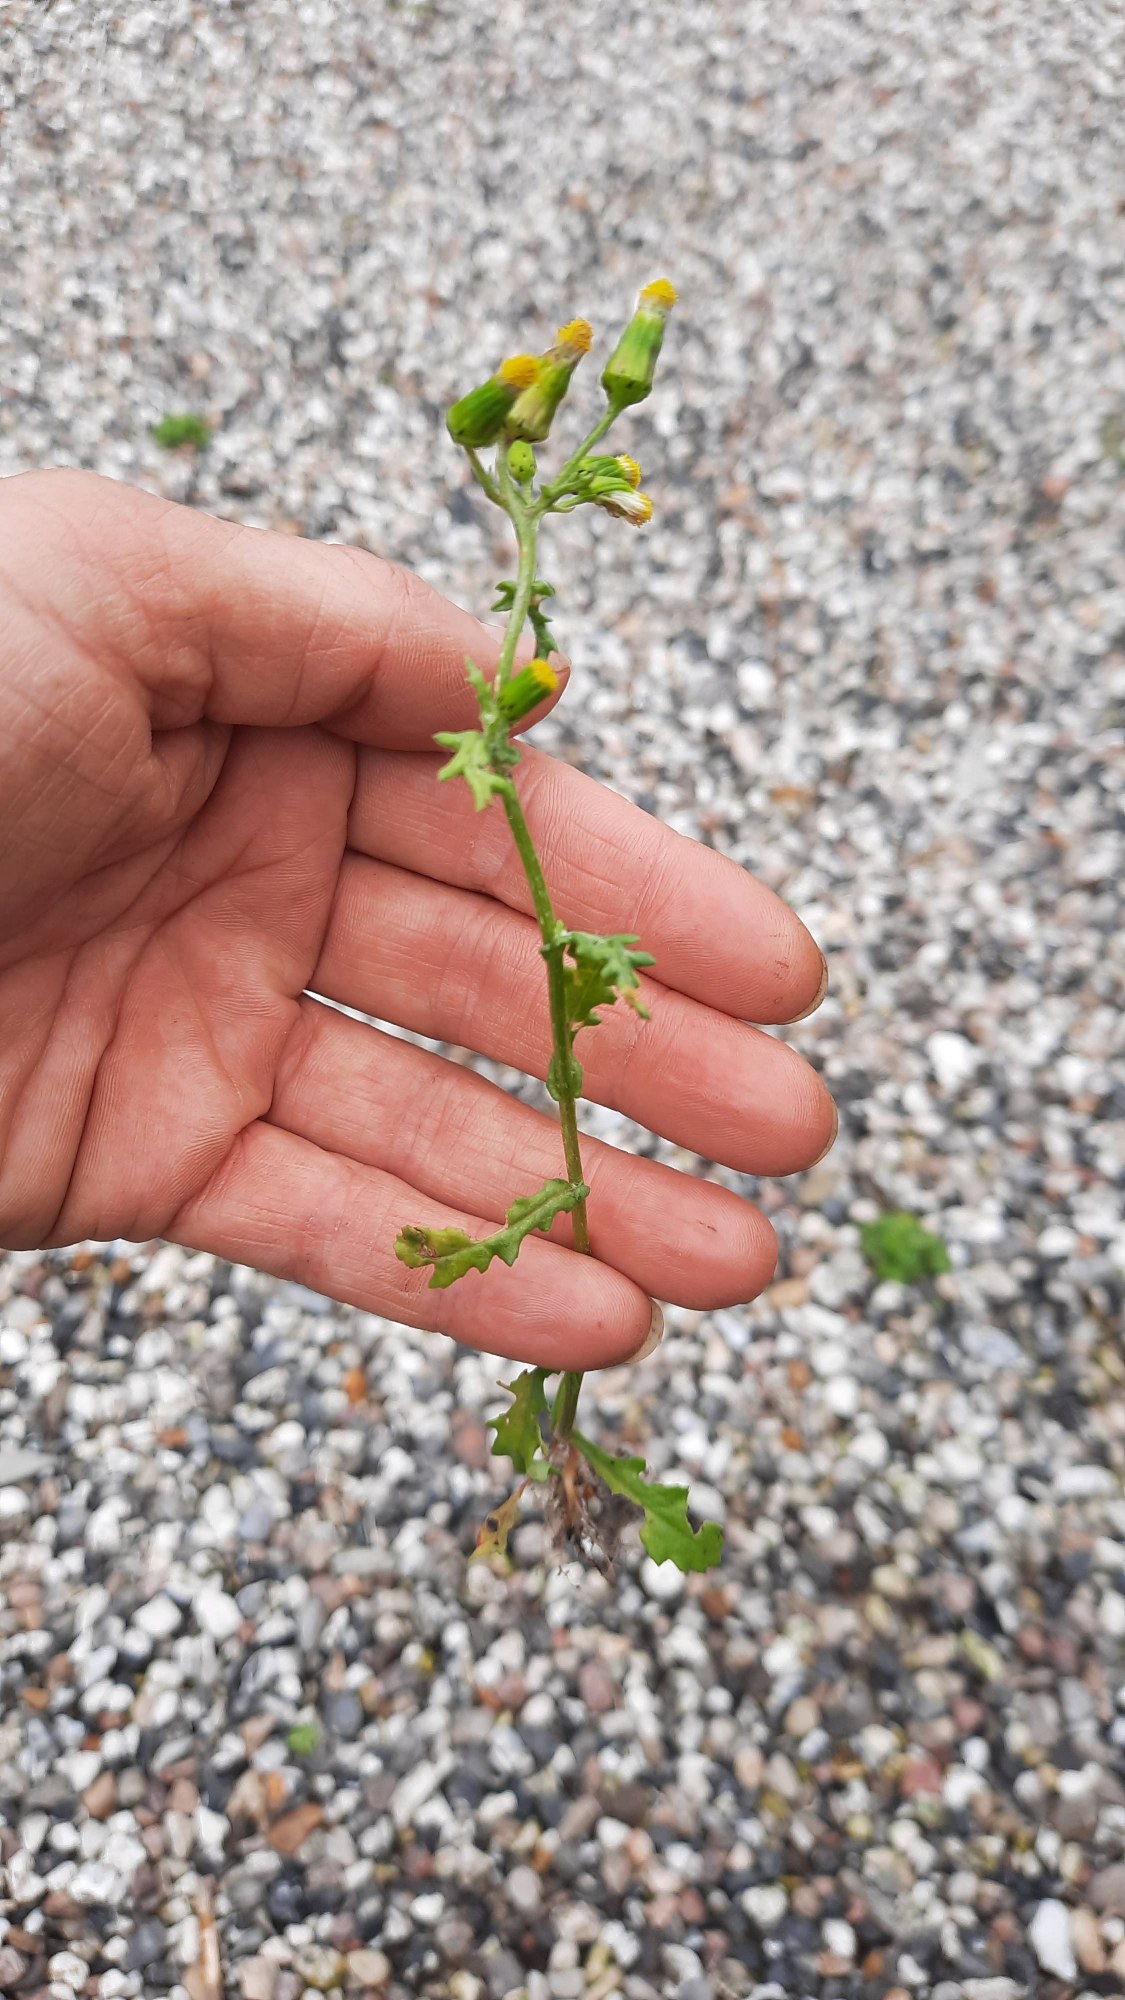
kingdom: Plantae
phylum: Tracheophyta
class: Magnoliopsida
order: Asterales
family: Asteraceae
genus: Senecio
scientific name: Senecio vulgaris
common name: Almindelig brandbæger
